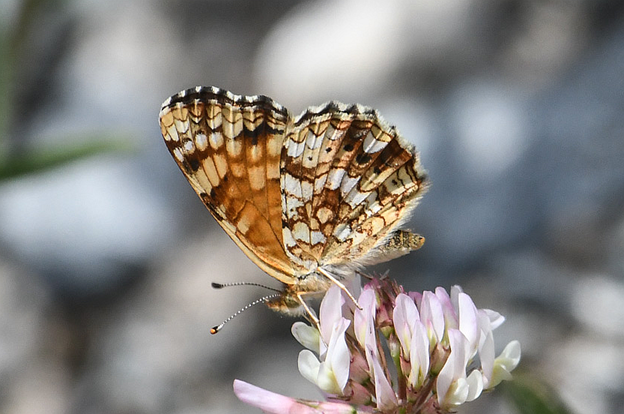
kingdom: Animalia
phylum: Arthropoda
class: Insecta
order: Lepidoptera
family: Nymphalidae
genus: Eresia
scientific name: Eresia aveyrona
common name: Mylitta Crescent
